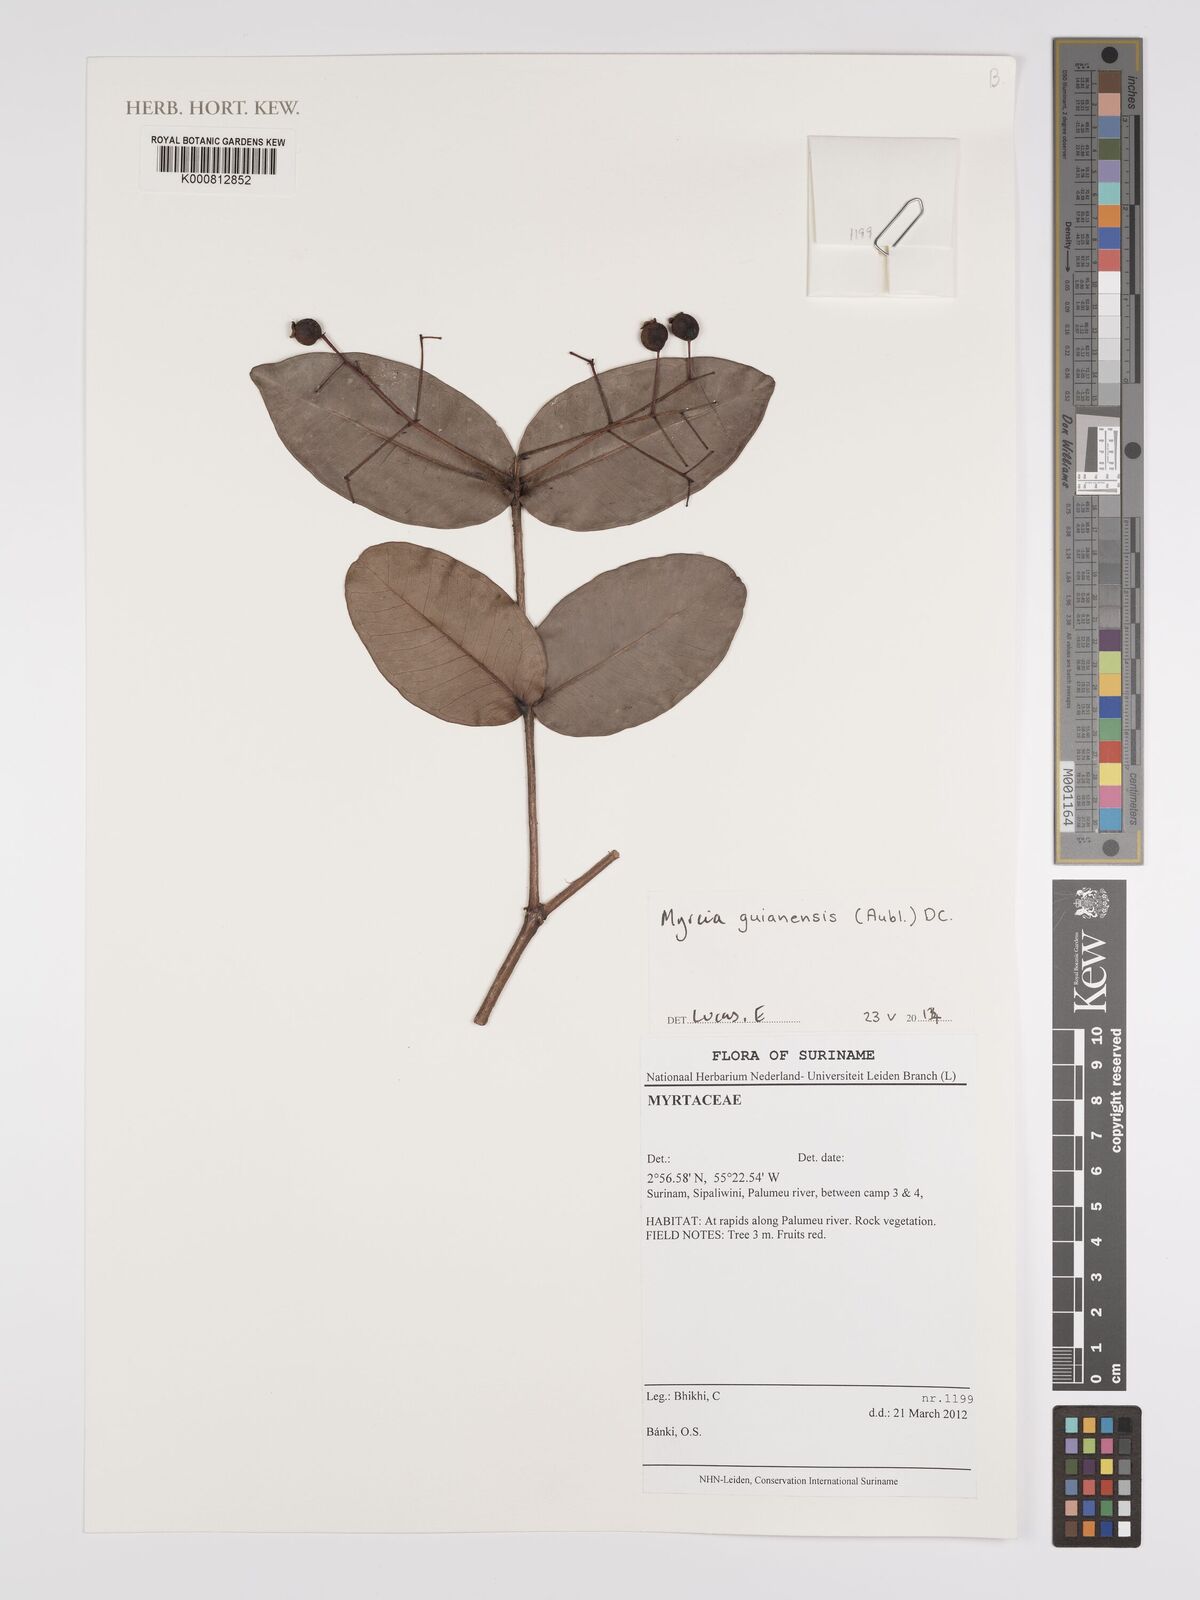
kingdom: Plantae
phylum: Tracheophyta
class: Magnoliopsida
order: Myrtales
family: Myrtaceae
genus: Myrcia
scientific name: Myrcia guianensis
